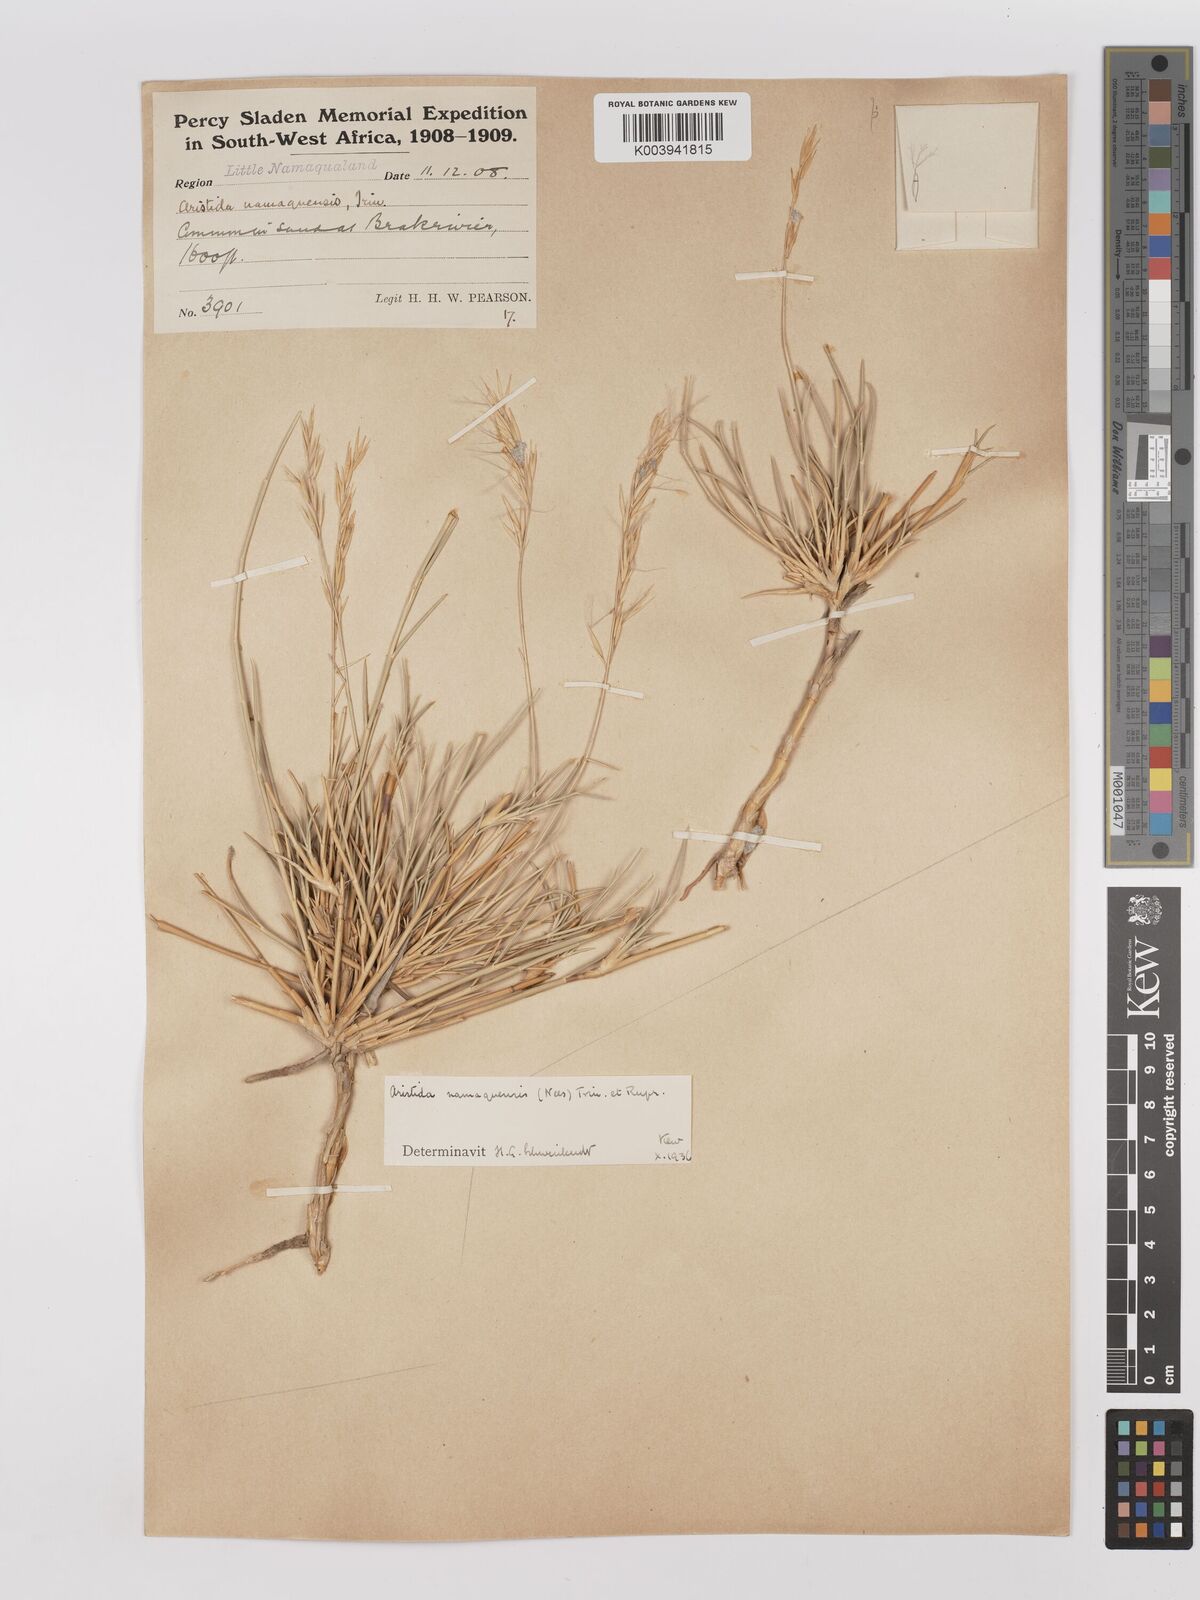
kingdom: Plantae
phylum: Tracheophyta
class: Liliopsida
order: Poales
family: Poaceae
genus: Stipagrostis
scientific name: Stipagrostis namaquensis
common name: River bushman grass
